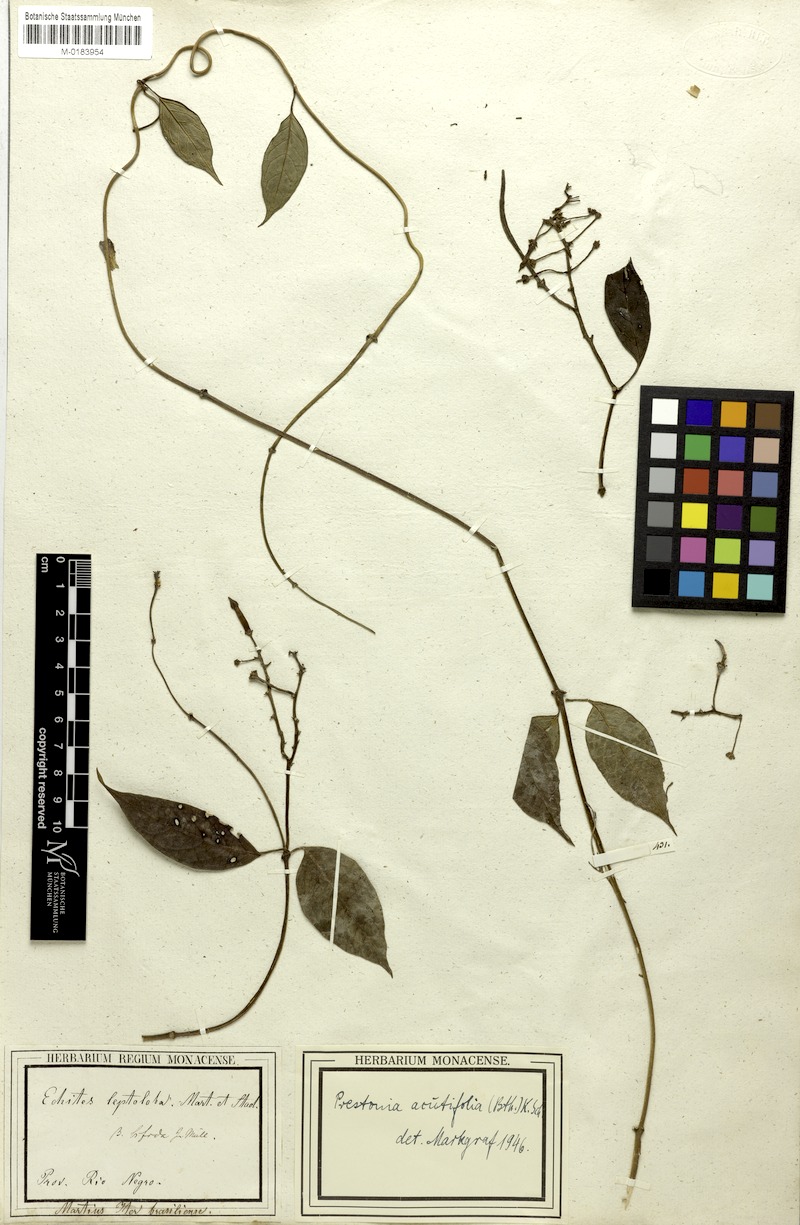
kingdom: Plantae
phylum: Tracheophyta
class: Magnoliopsida
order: Gentianales
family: Apocynaceae
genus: Prestonia
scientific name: Prestonia quinquangularis
